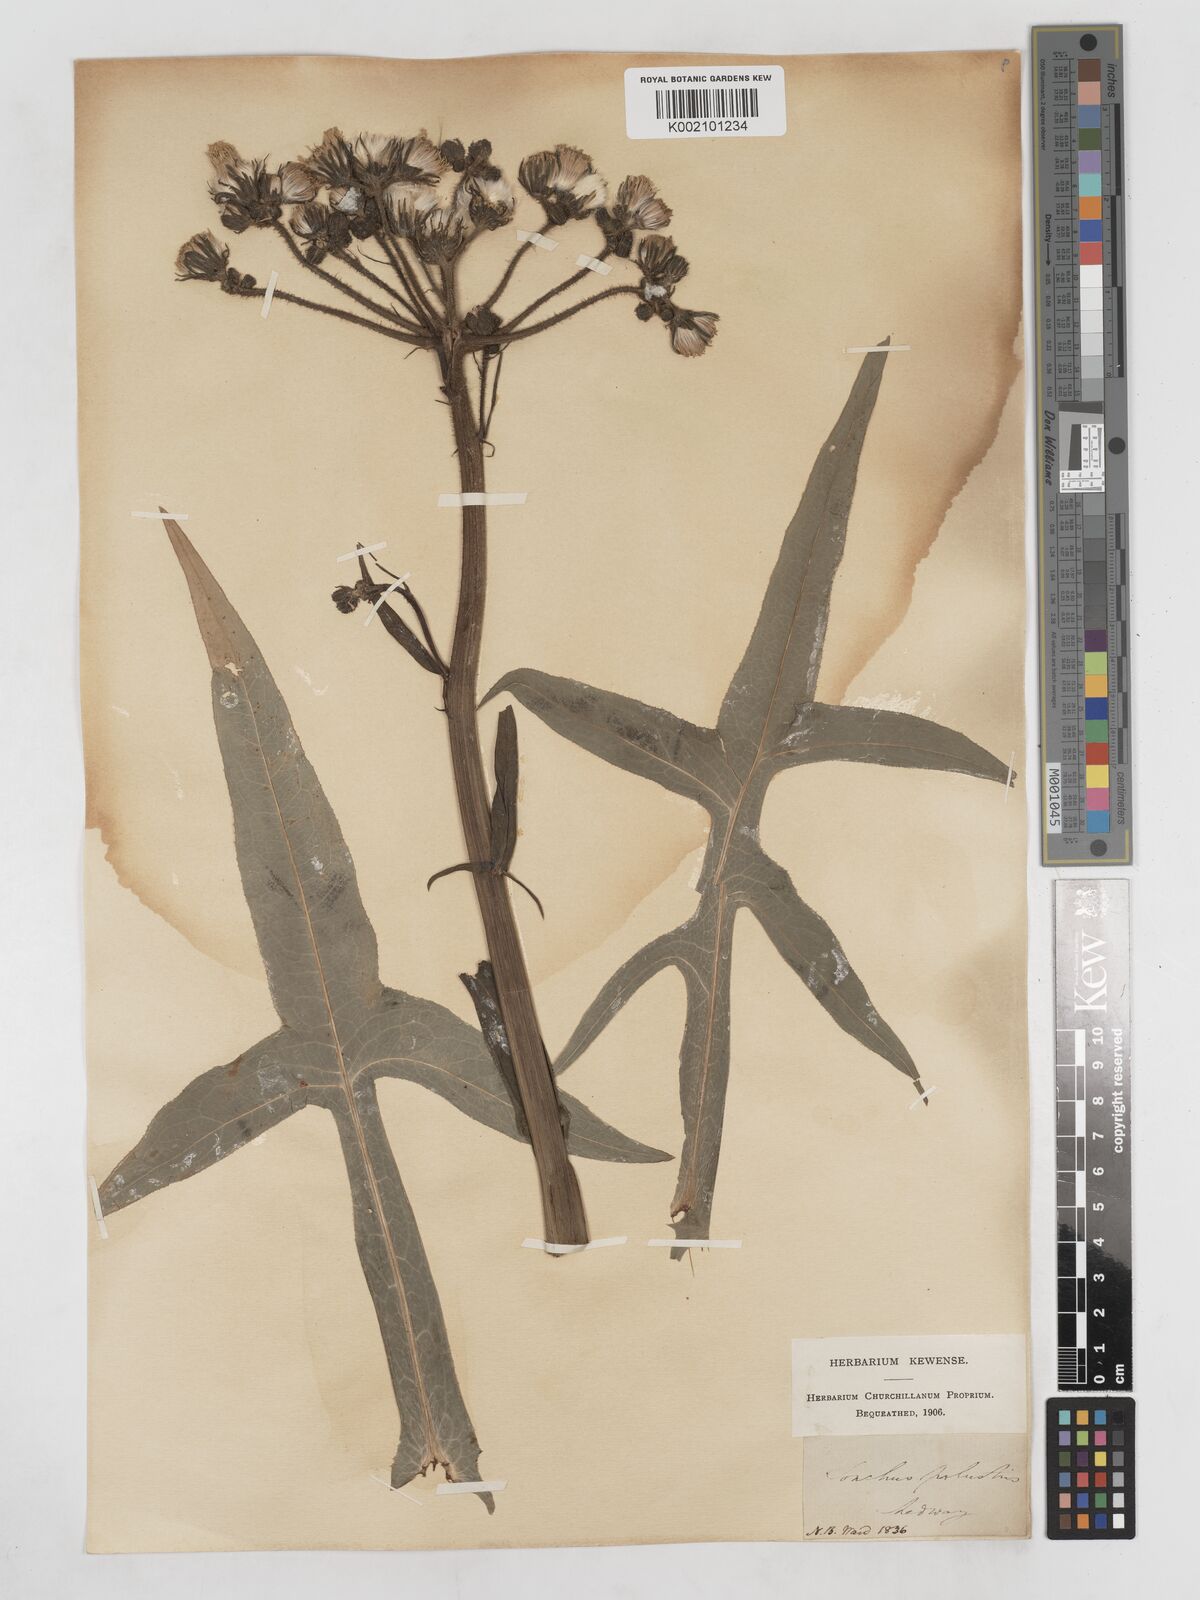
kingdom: Plantae
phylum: Tracheophyta
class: Magnoliopsida
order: Asterales
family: Asteraceae
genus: Sonchus
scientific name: Sonchus palustris
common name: Marsh sow-thistle
